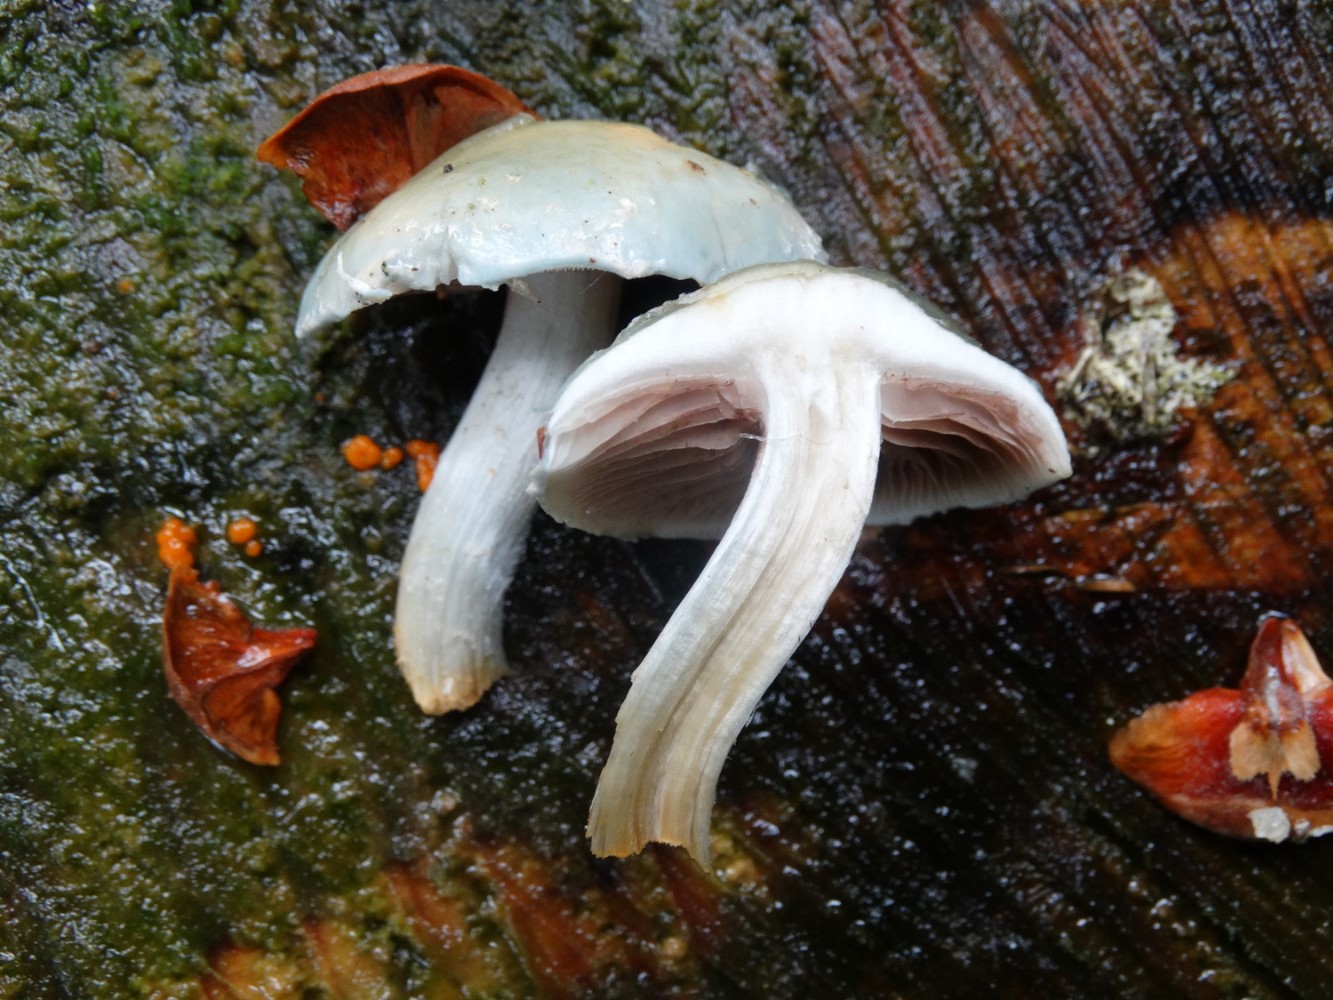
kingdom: Fungi
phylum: Basidiomycota
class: Agaricomycetes
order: Agaricales
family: Strophariaceae
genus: Stropharia
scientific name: Stropharia cyanea
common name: blågrøn bredblad
